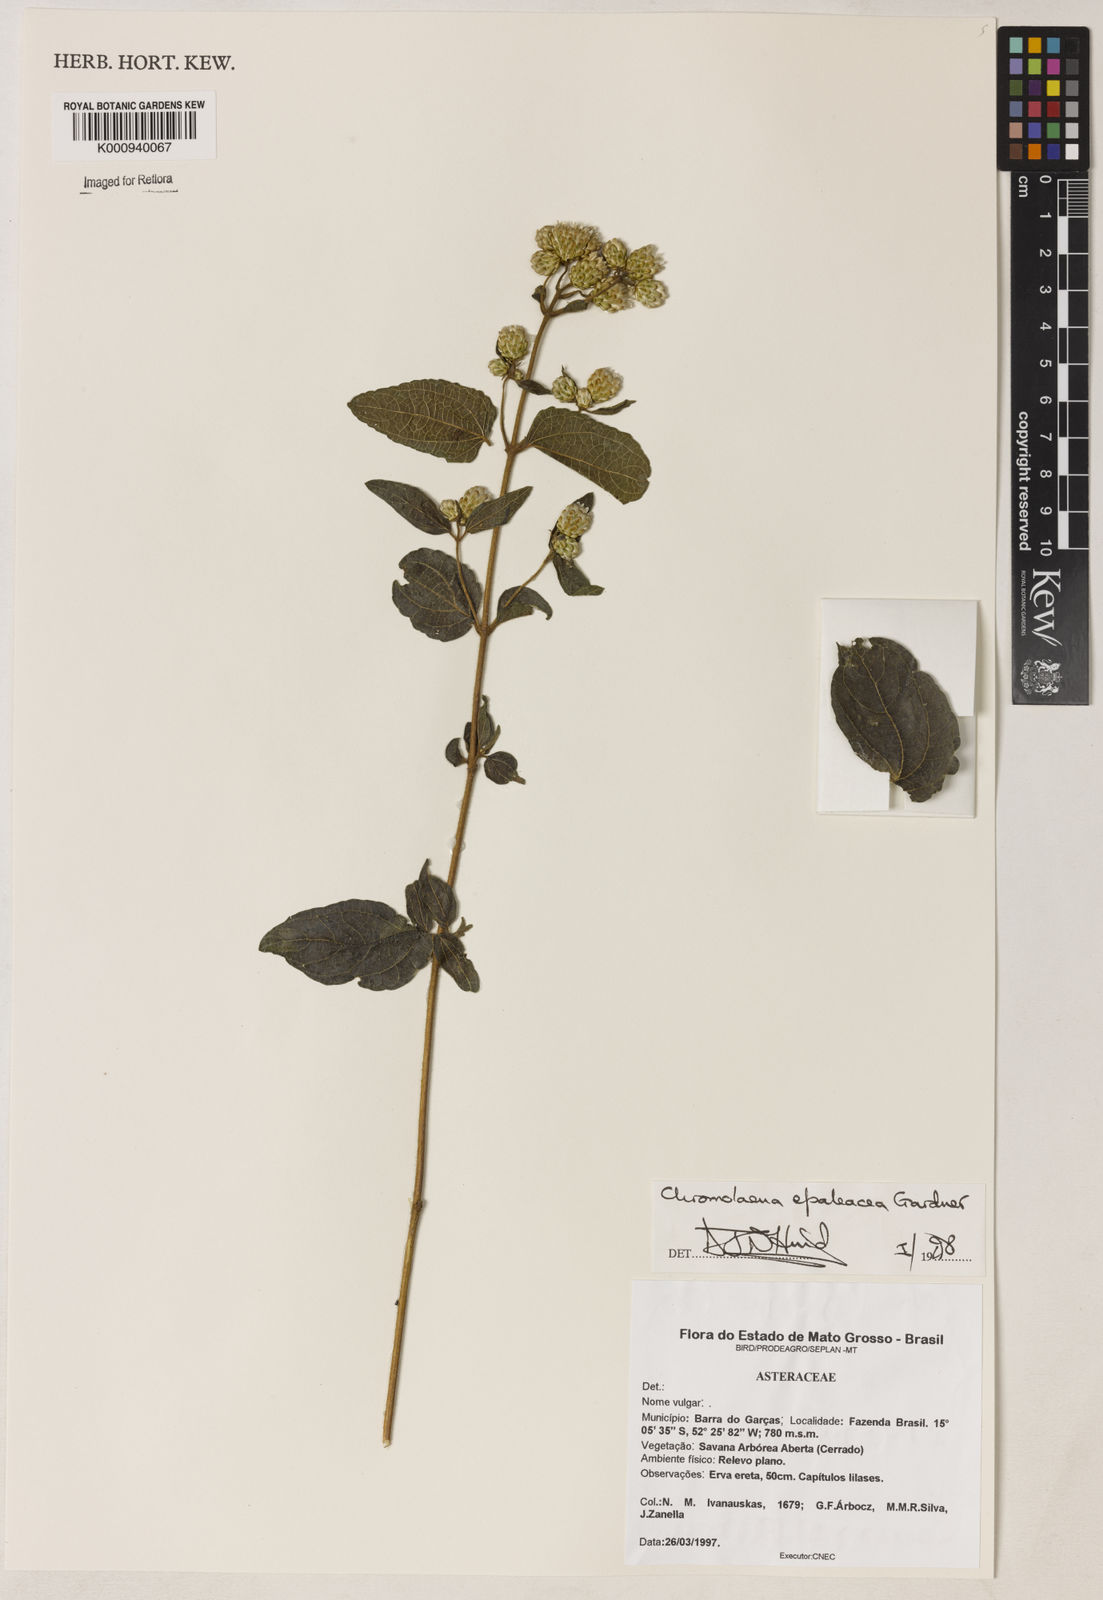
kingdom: Plantae
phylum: Tracheophyta
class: Magnoliopsida
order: Asterales
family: Asteraceae
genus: Chromolaena
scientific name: Chromolaena epaleacea
